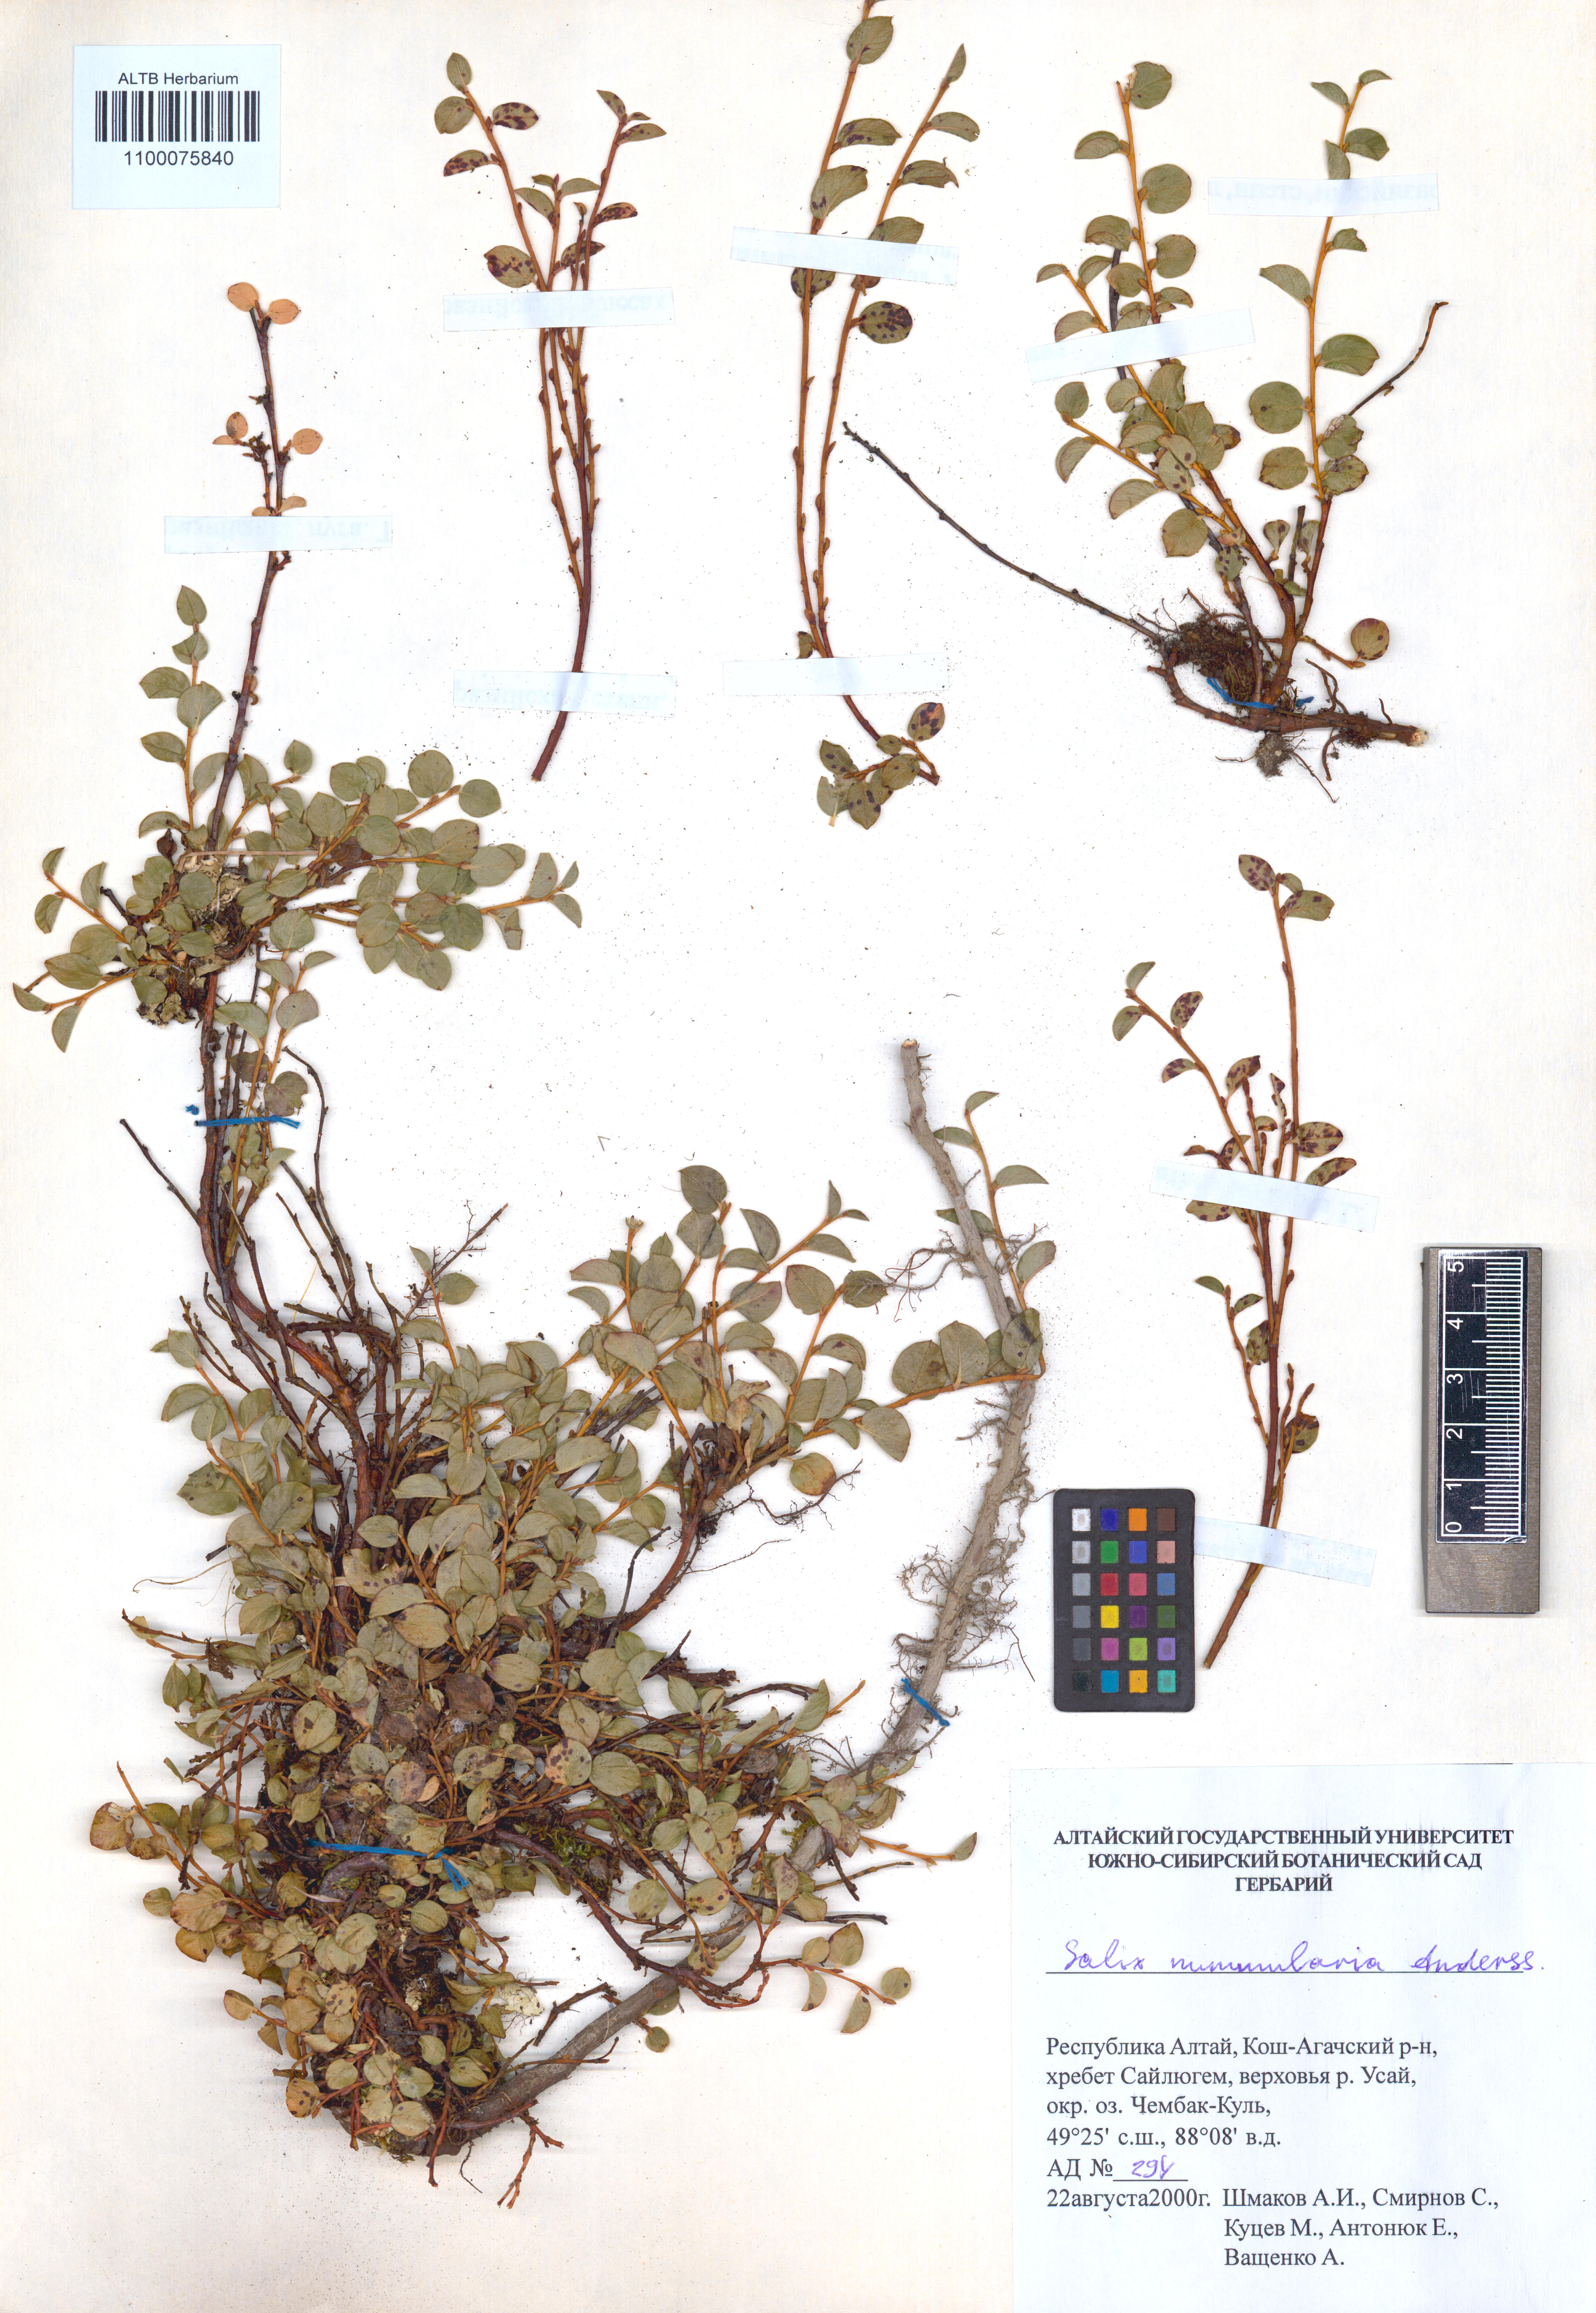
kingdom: Plantae
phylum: Tracheophyta
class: Magnoliopsida
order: Malpighiales
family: Salicaceae
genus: Salix
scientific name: Salix nummularia
